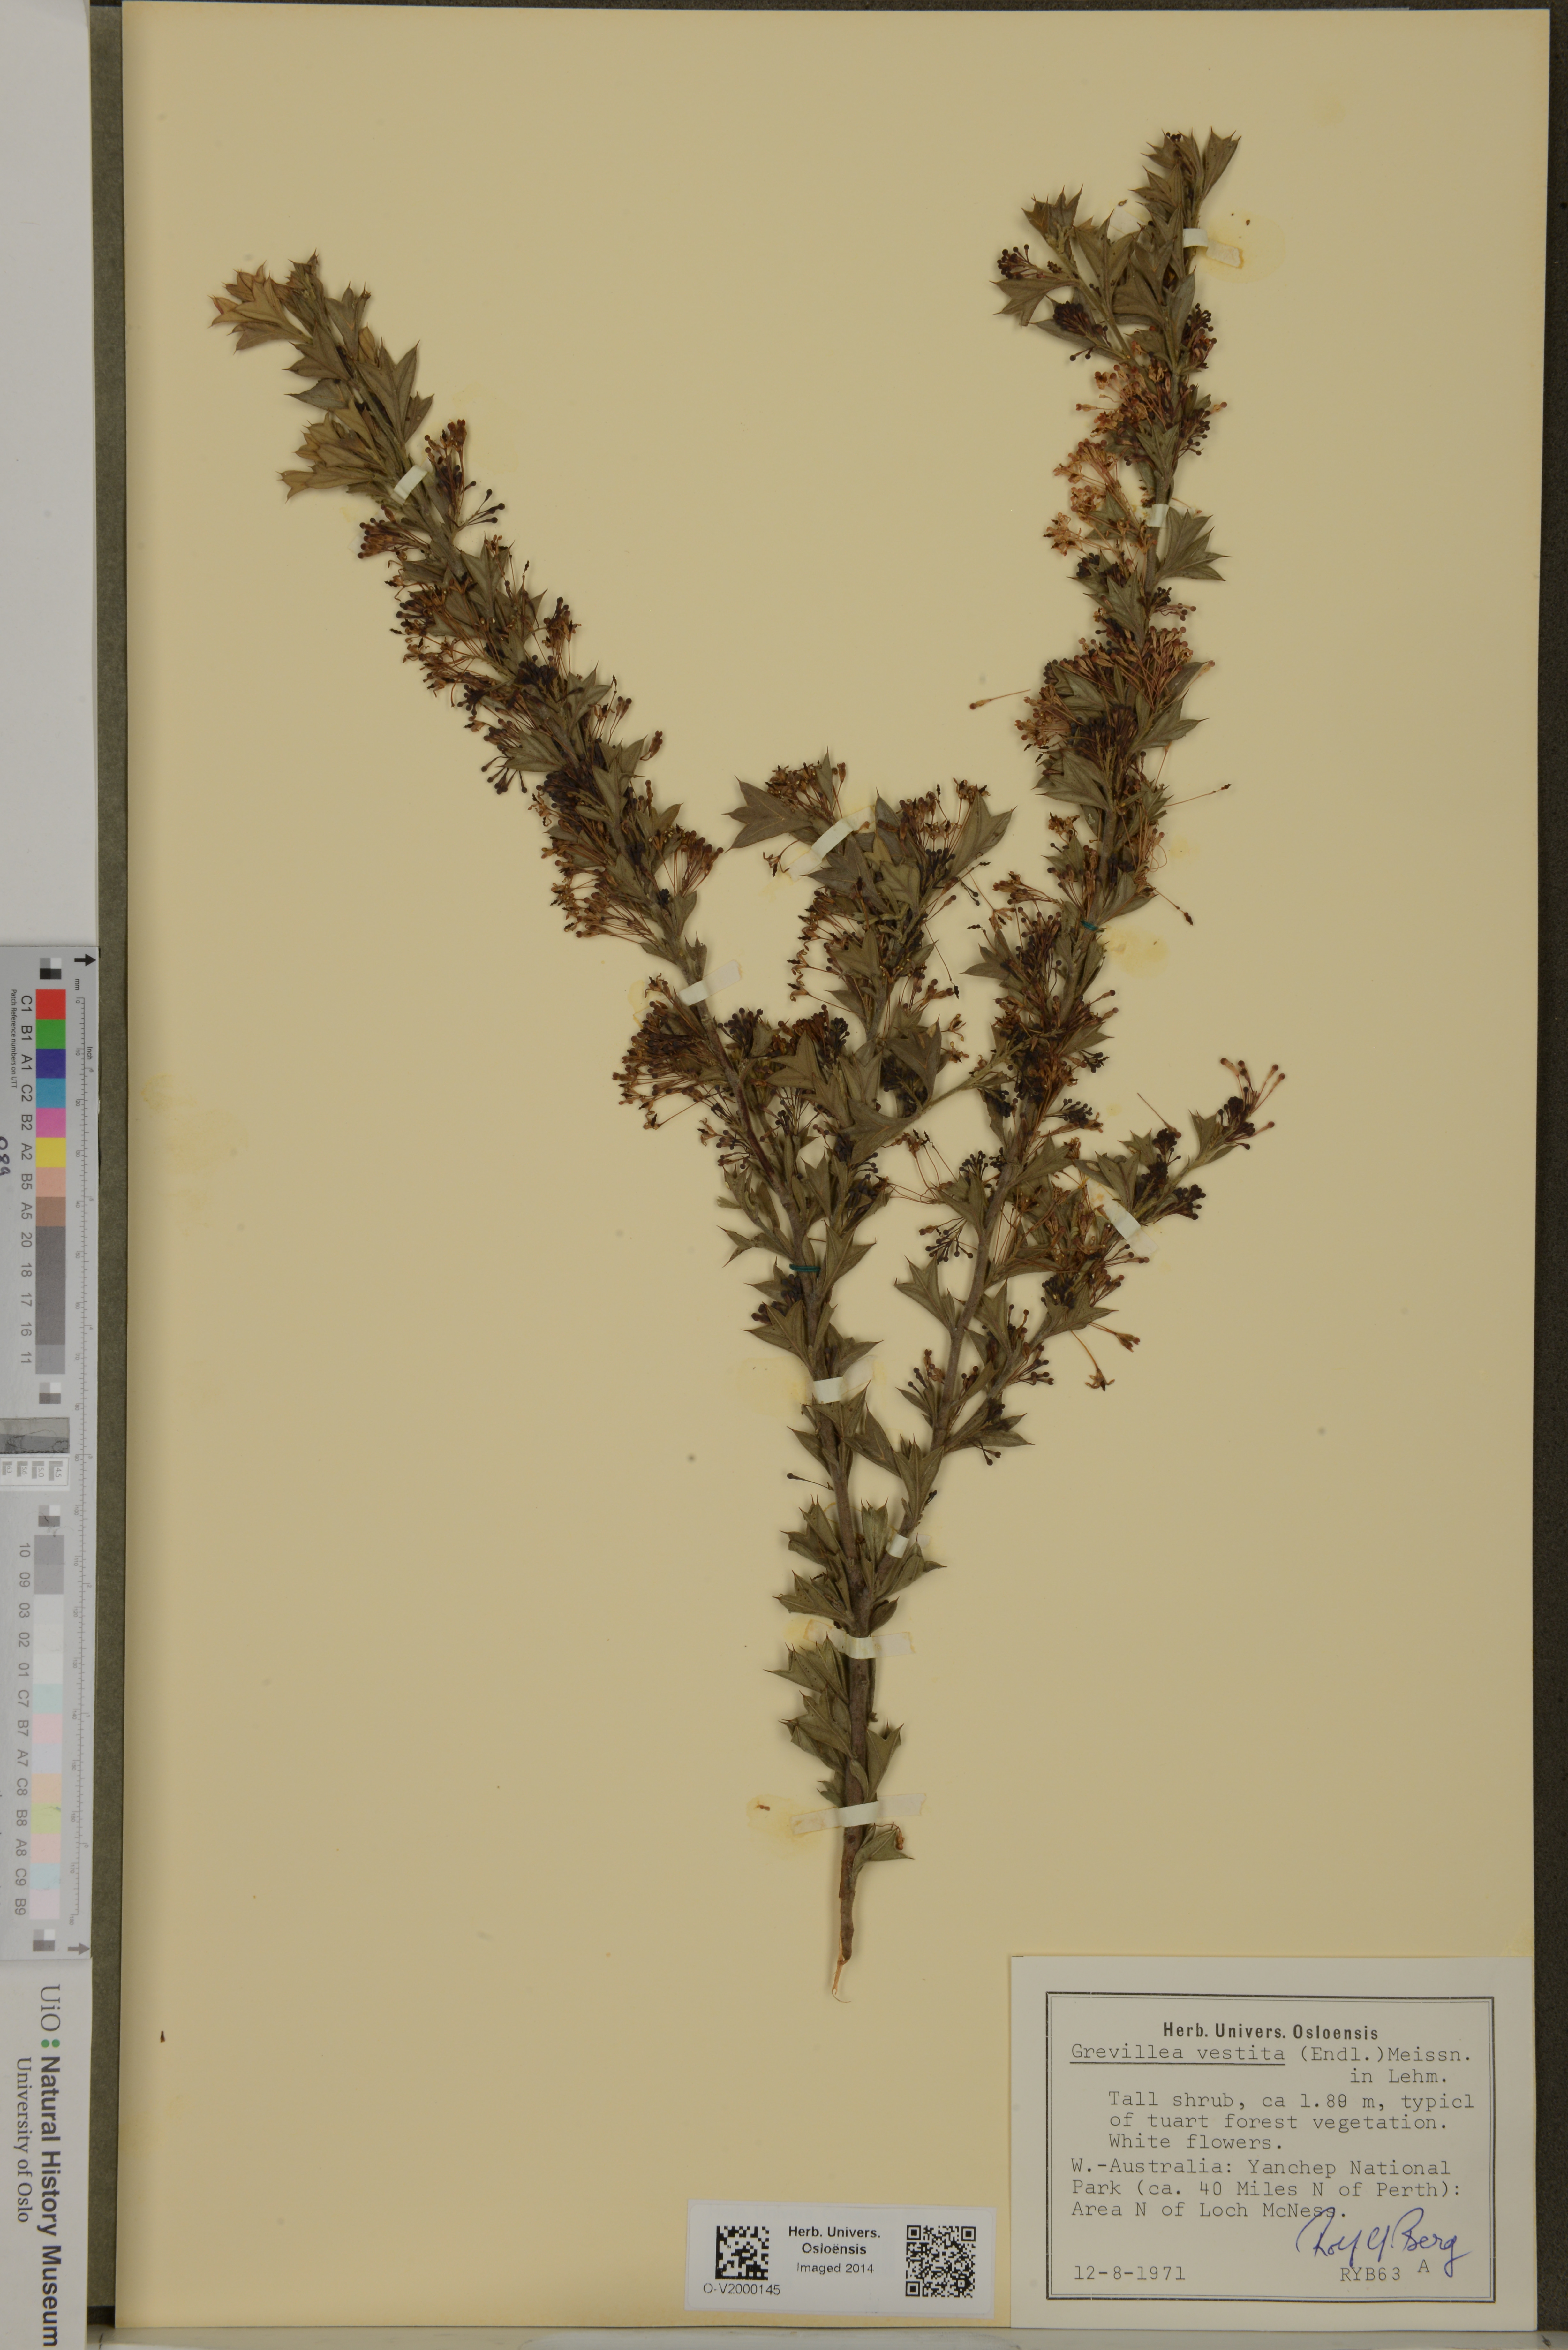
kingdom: Plantae
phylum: Tracheophyta
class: Magnoliopsida
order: Proteales
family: Proteaceae
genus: Grevillea
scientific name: Grevillea vestita
